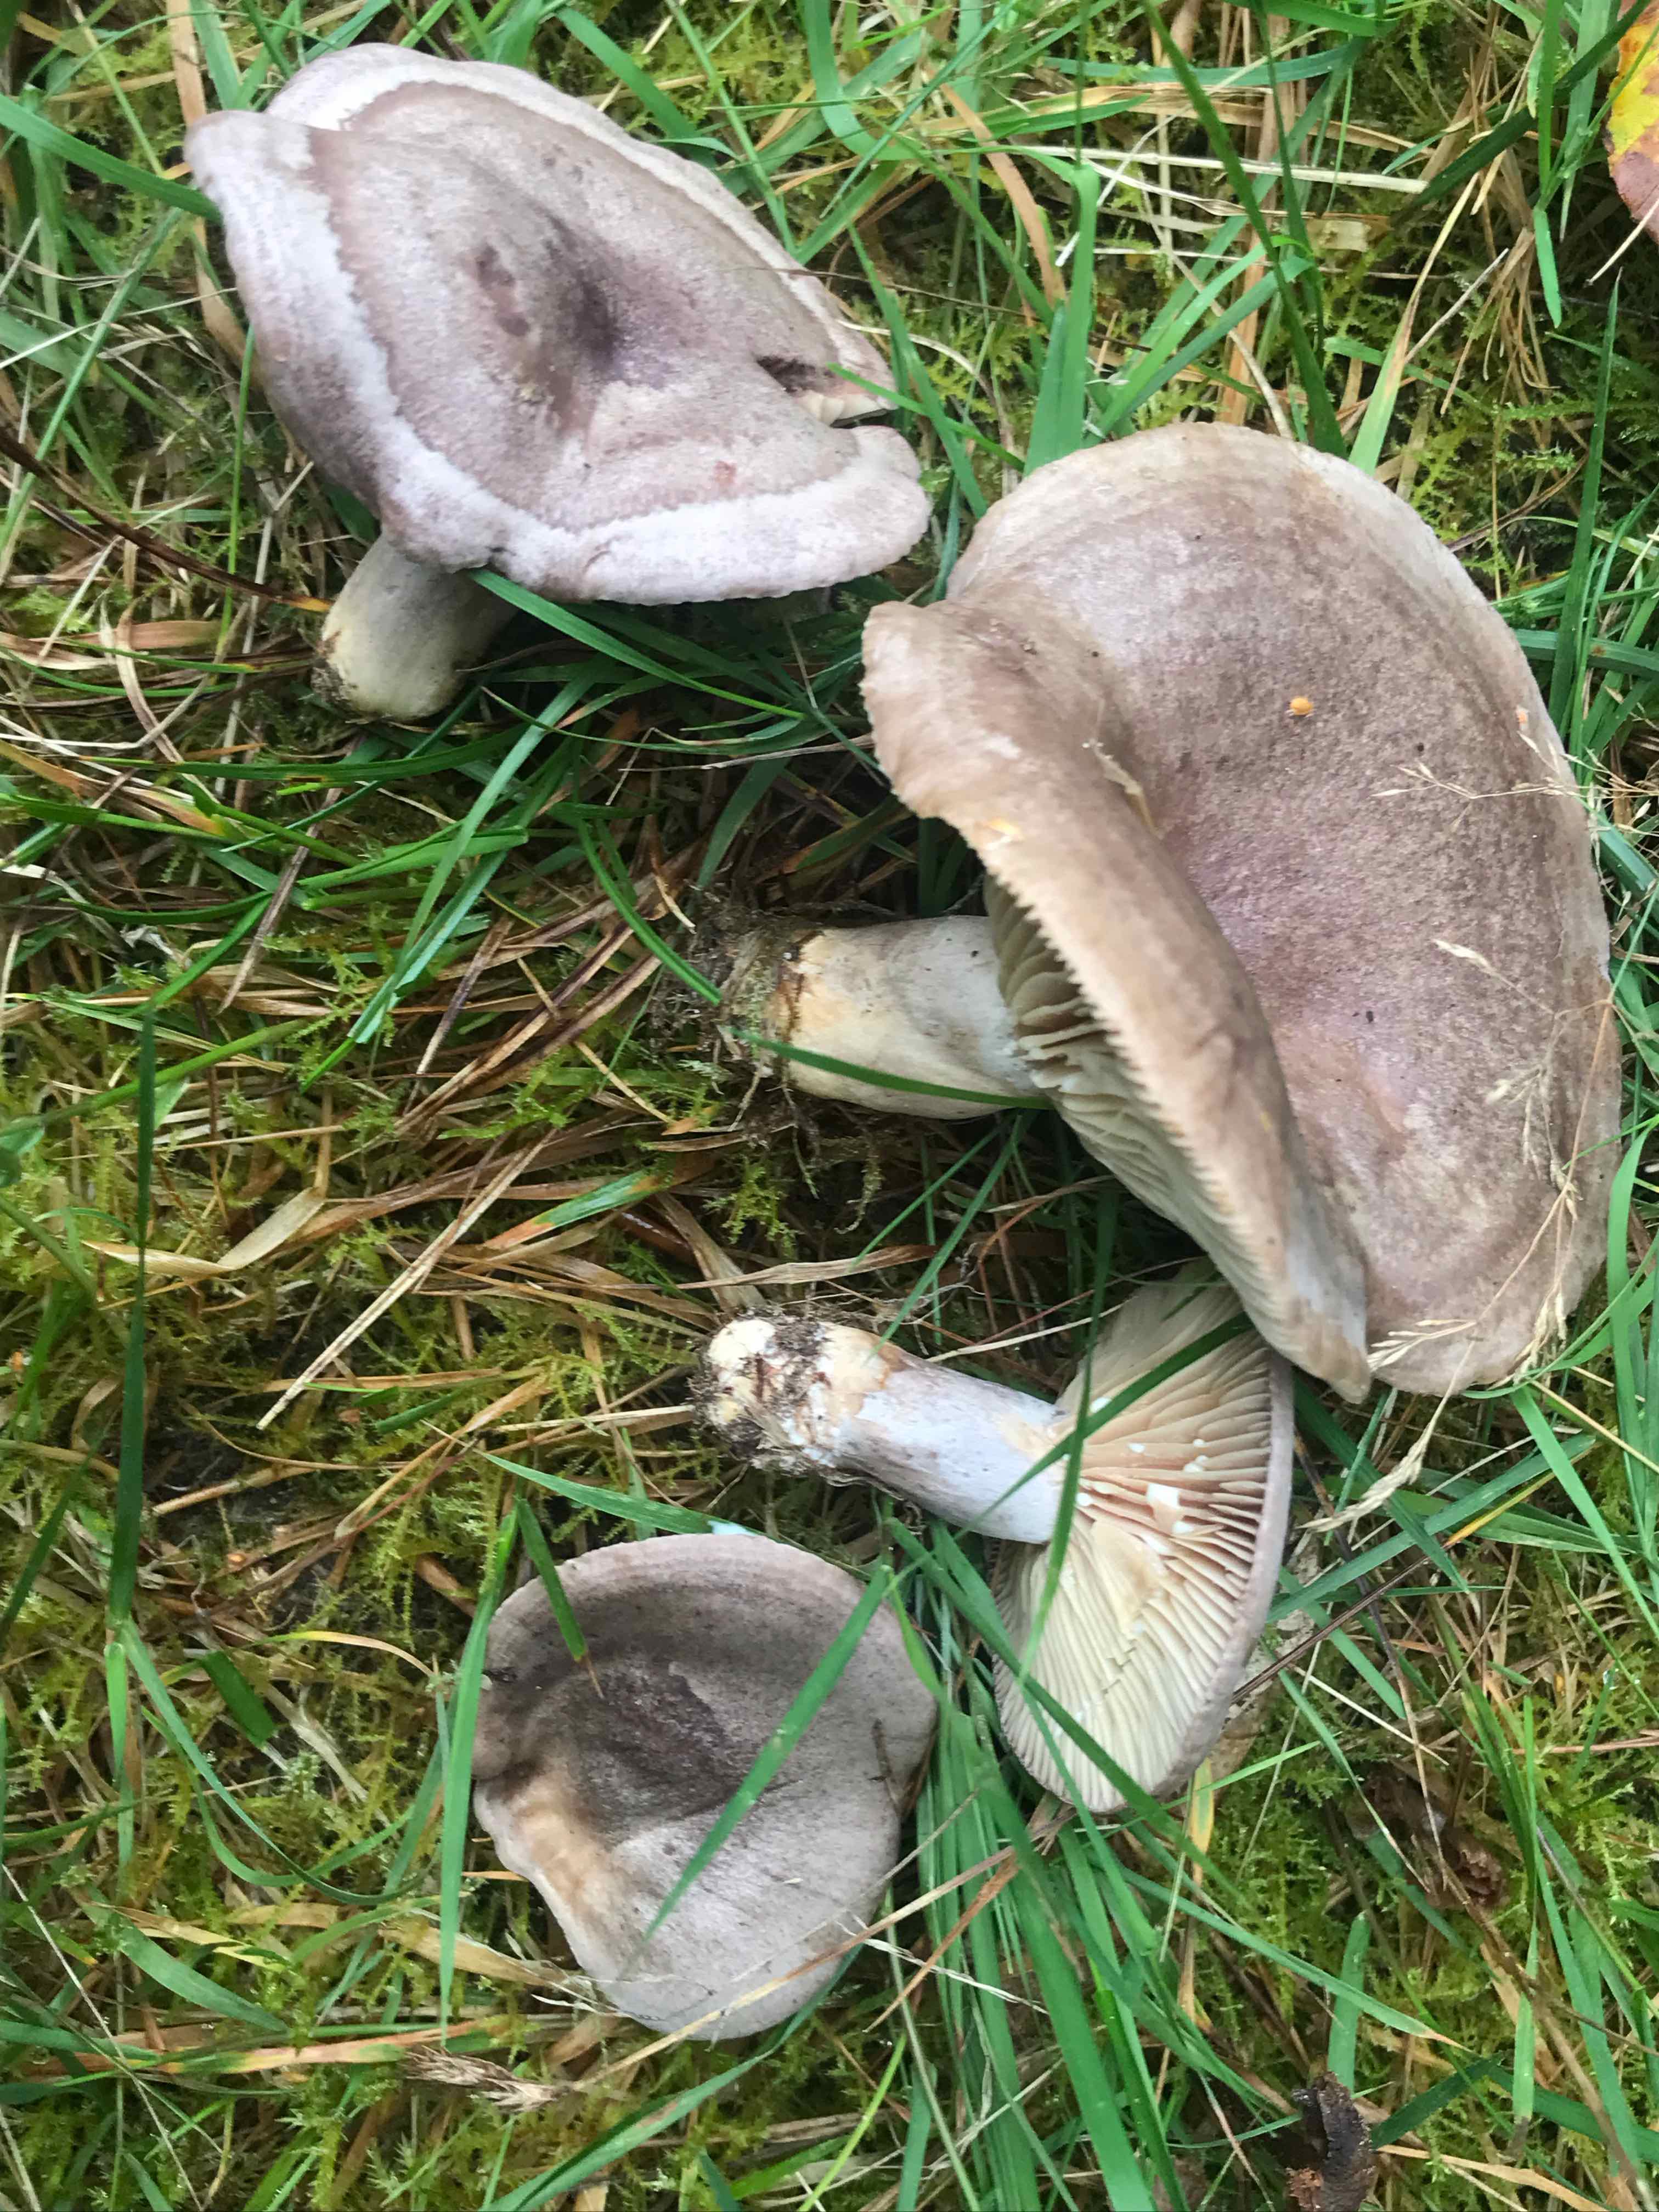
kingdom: Fungi
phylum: Basidiomycota
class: Agaricomycetes
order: Russulales
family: Russulaceae
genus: Lactarius
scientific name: Lactarius flexuosus
